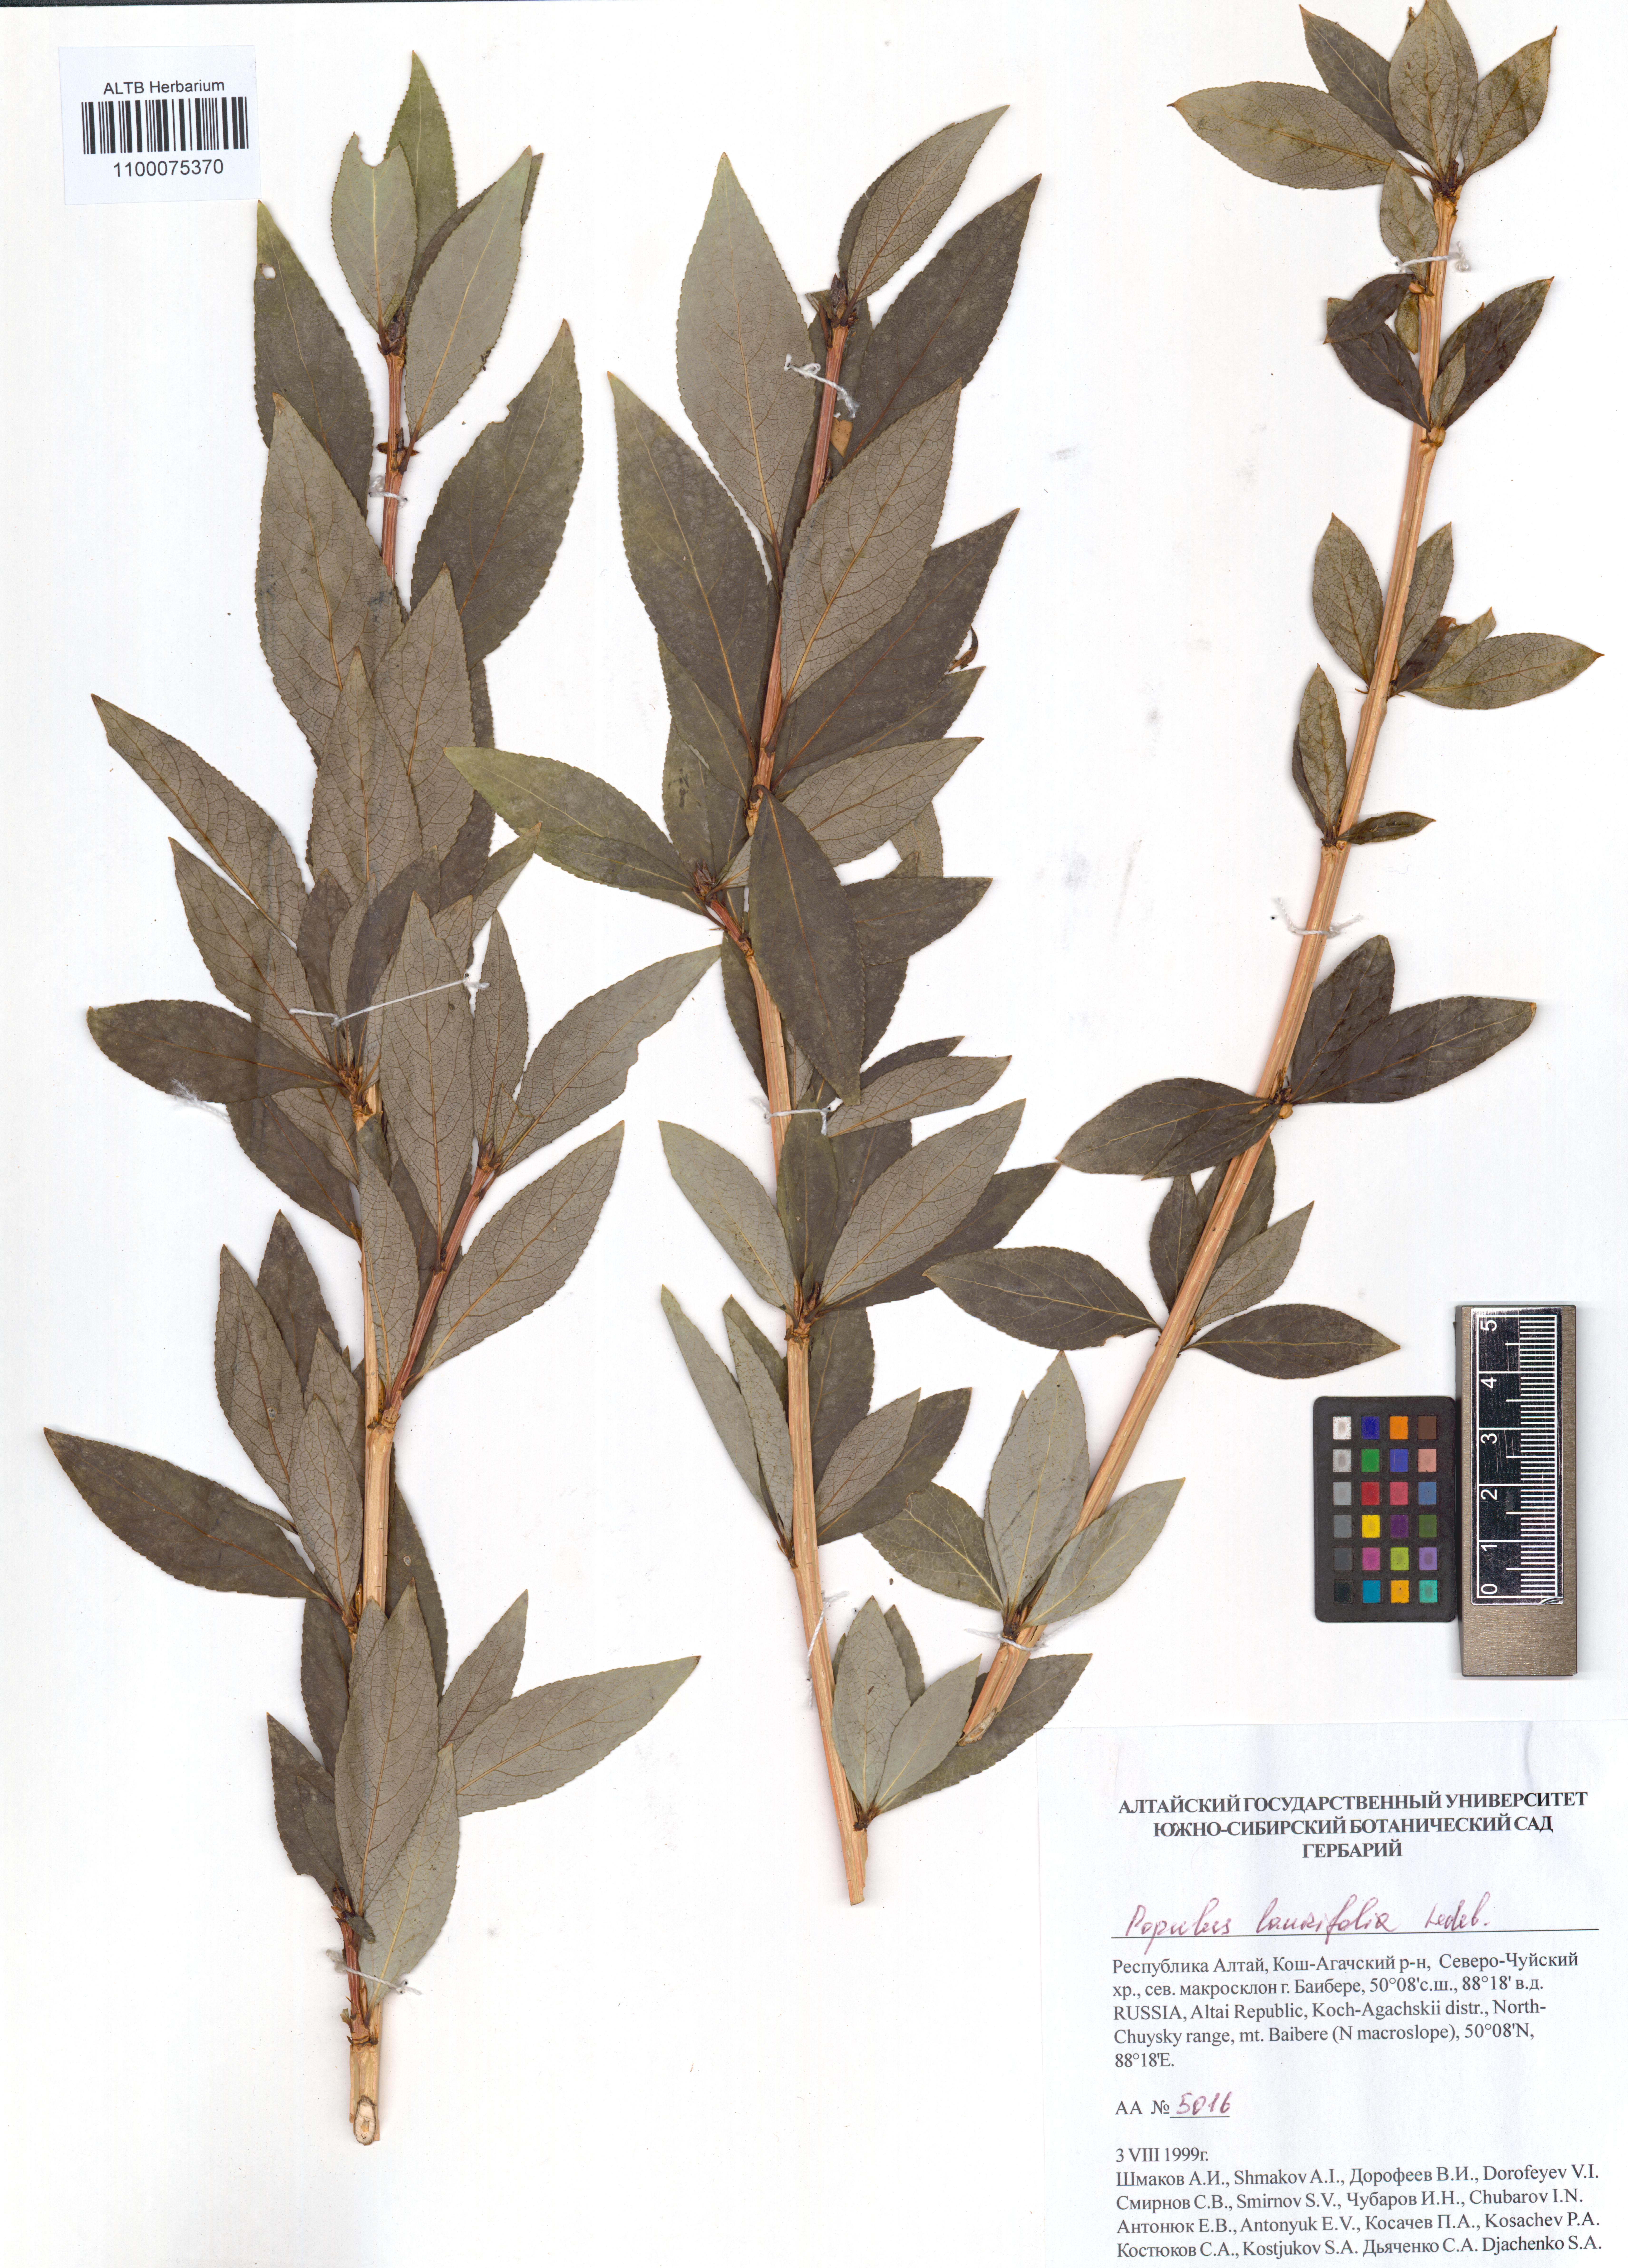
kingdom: Plantae
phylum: Tracheophyta
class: Magnoliopsida
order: Malpighiales
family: Salicaceae
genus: Populus
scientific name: Populus laurifolia
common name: Laurel-leaf poplar
